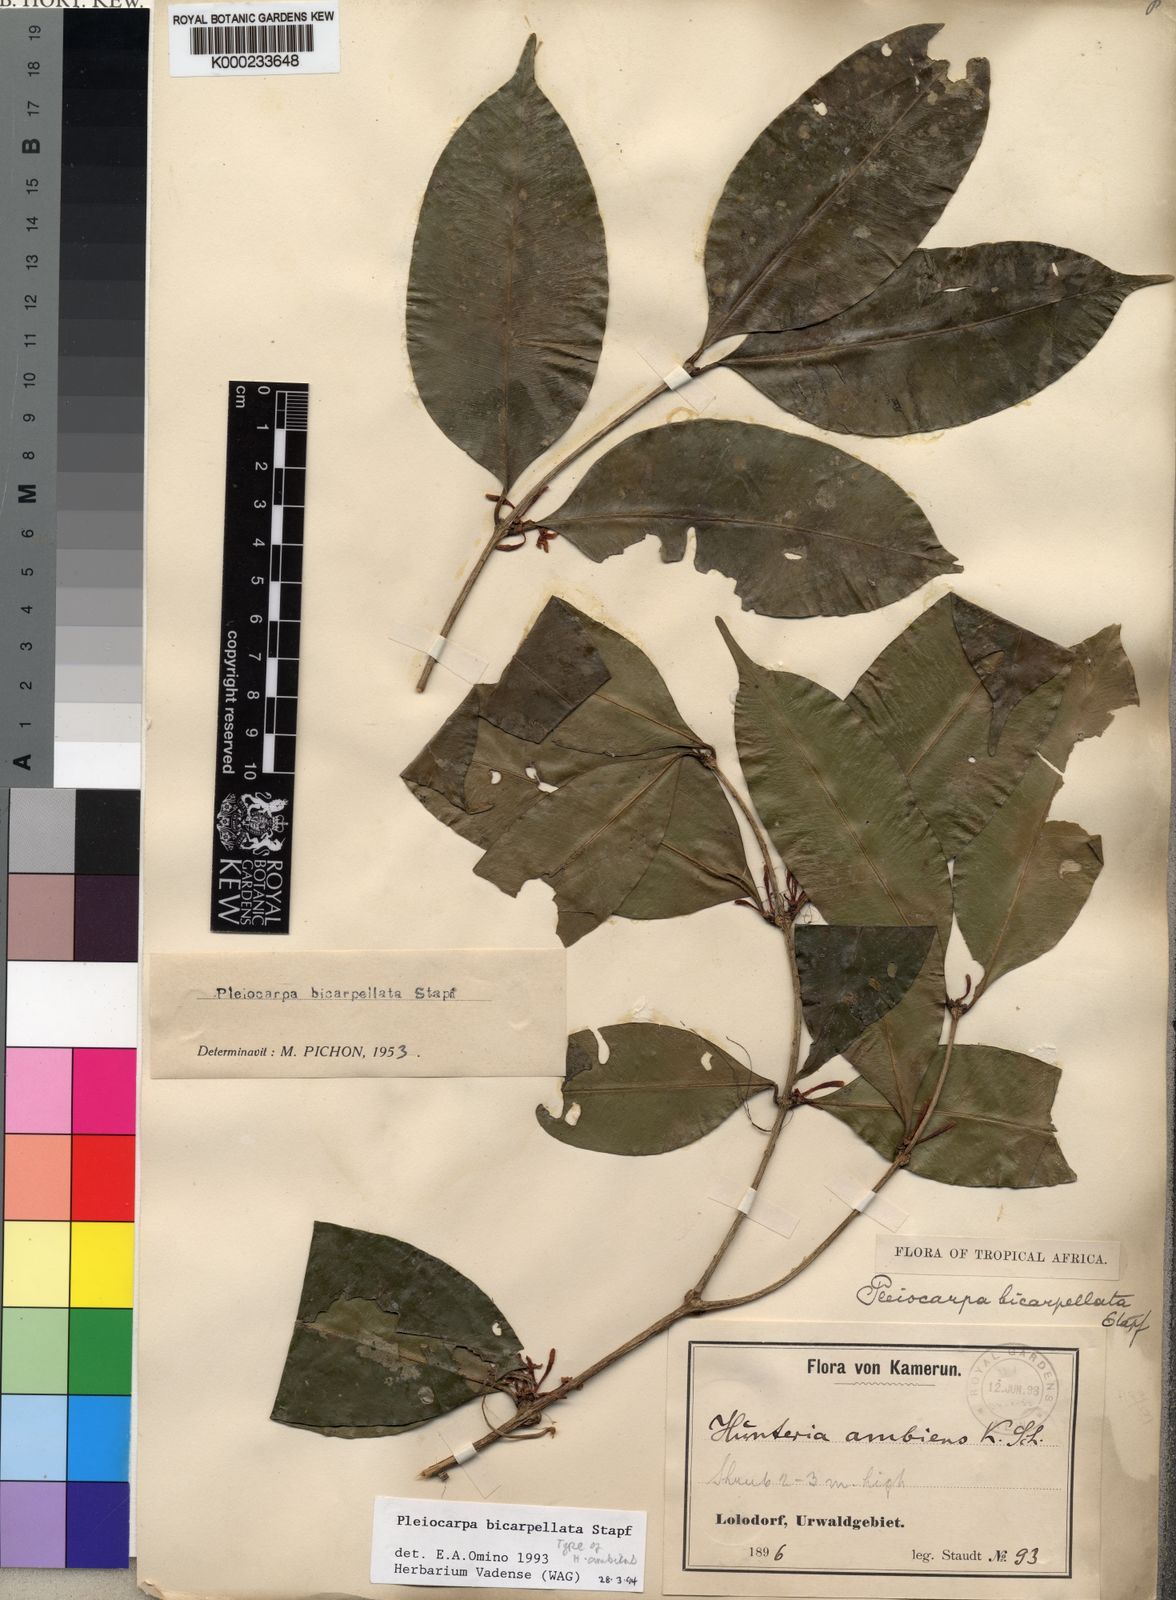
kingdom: Plantae
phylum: Tracheophyta
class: Magnoliopsida
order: Gentianales
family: Apocynaceae
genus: Pleiocarpa
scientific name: Pleiocarpa bicarpellata
